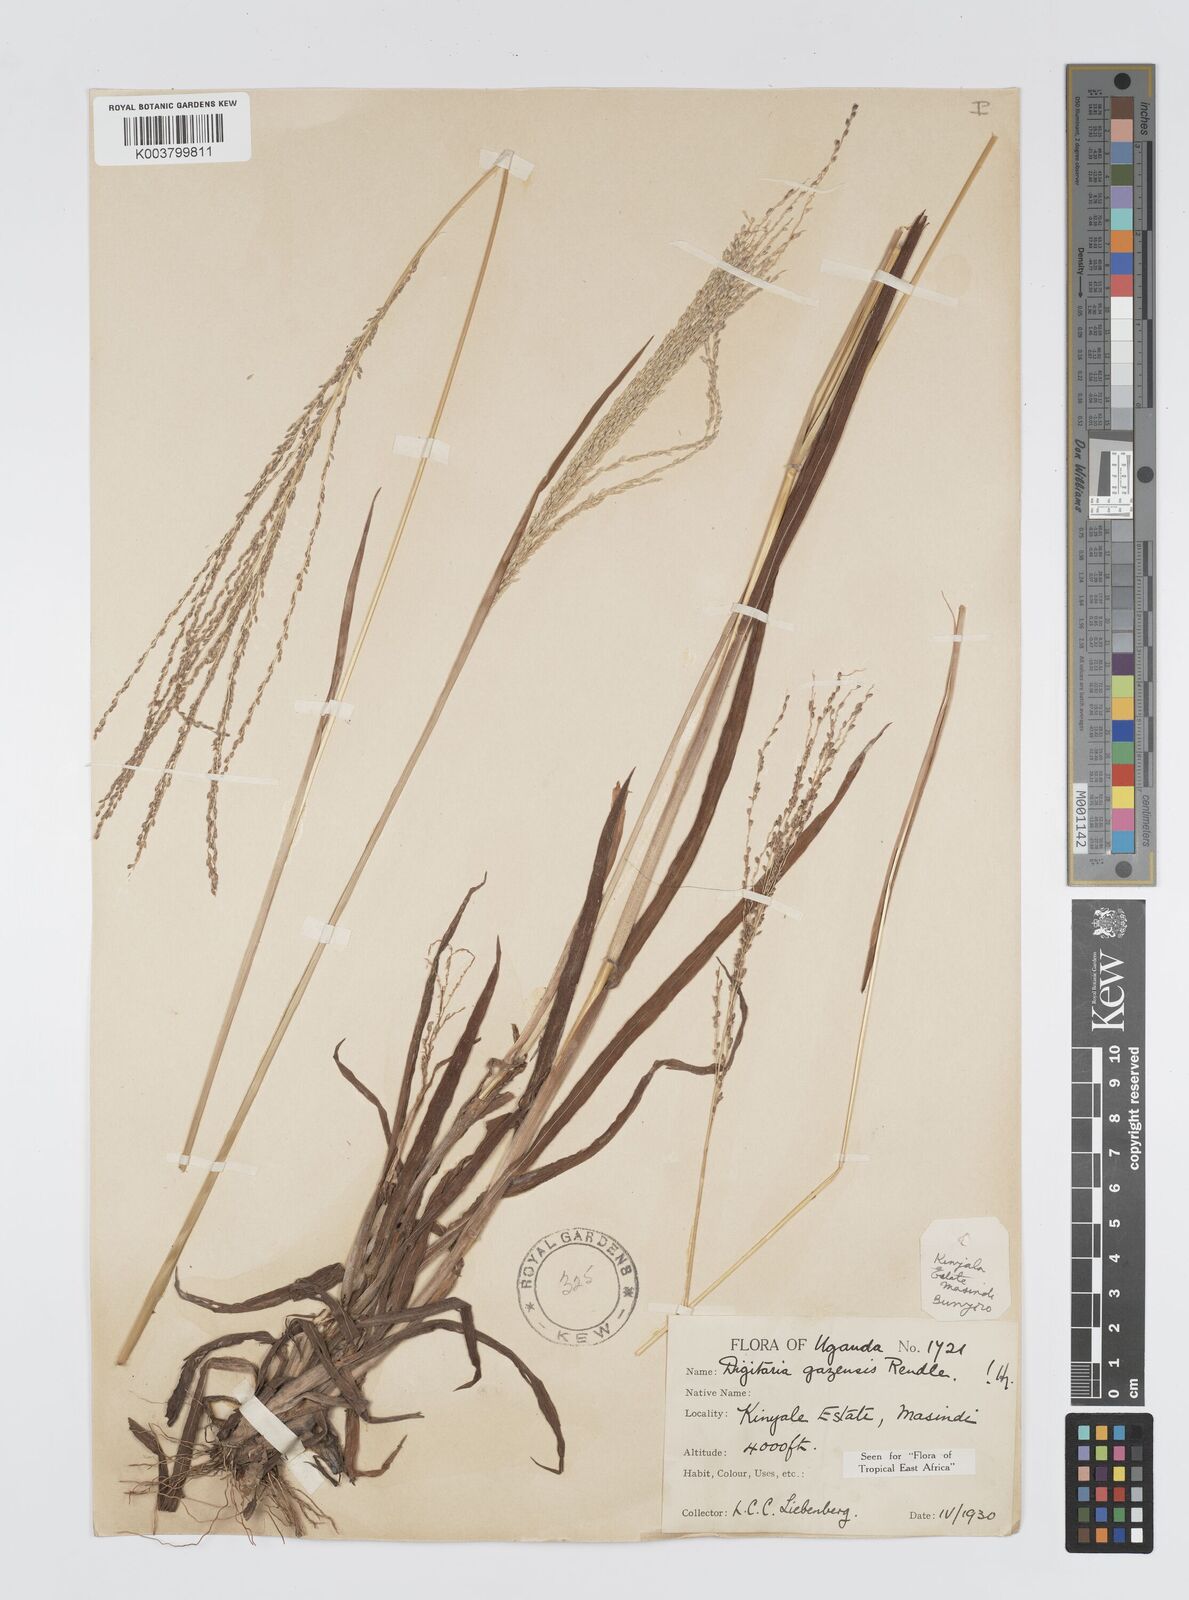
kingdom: Plantae
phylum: Tracheophyta
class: Liliopsida
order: Poales
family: Poaceae
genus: Digitaria
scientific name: Digitaria gazensis
